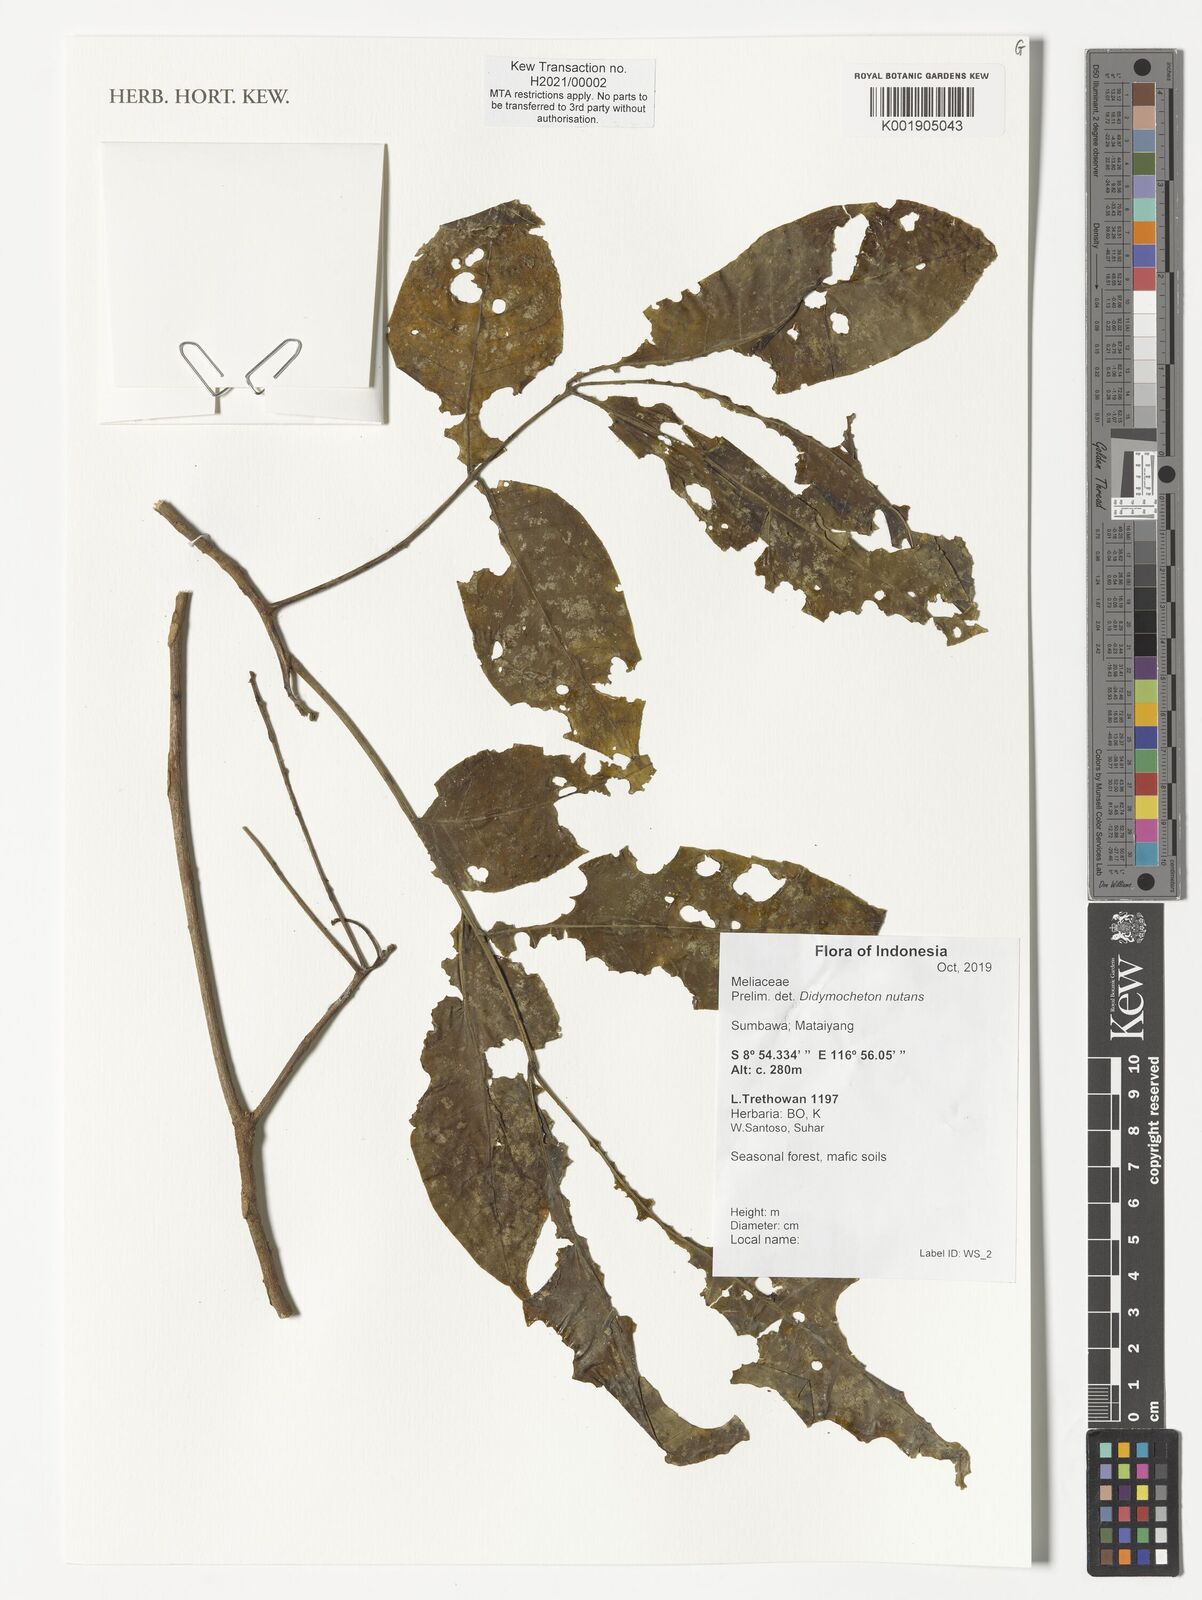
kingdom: Plantae
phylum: Tracheophyta
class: Magnoliopsida
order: Sapindales
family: Meliaceae
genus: Didymocheton
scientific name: Didymocheton nutans
